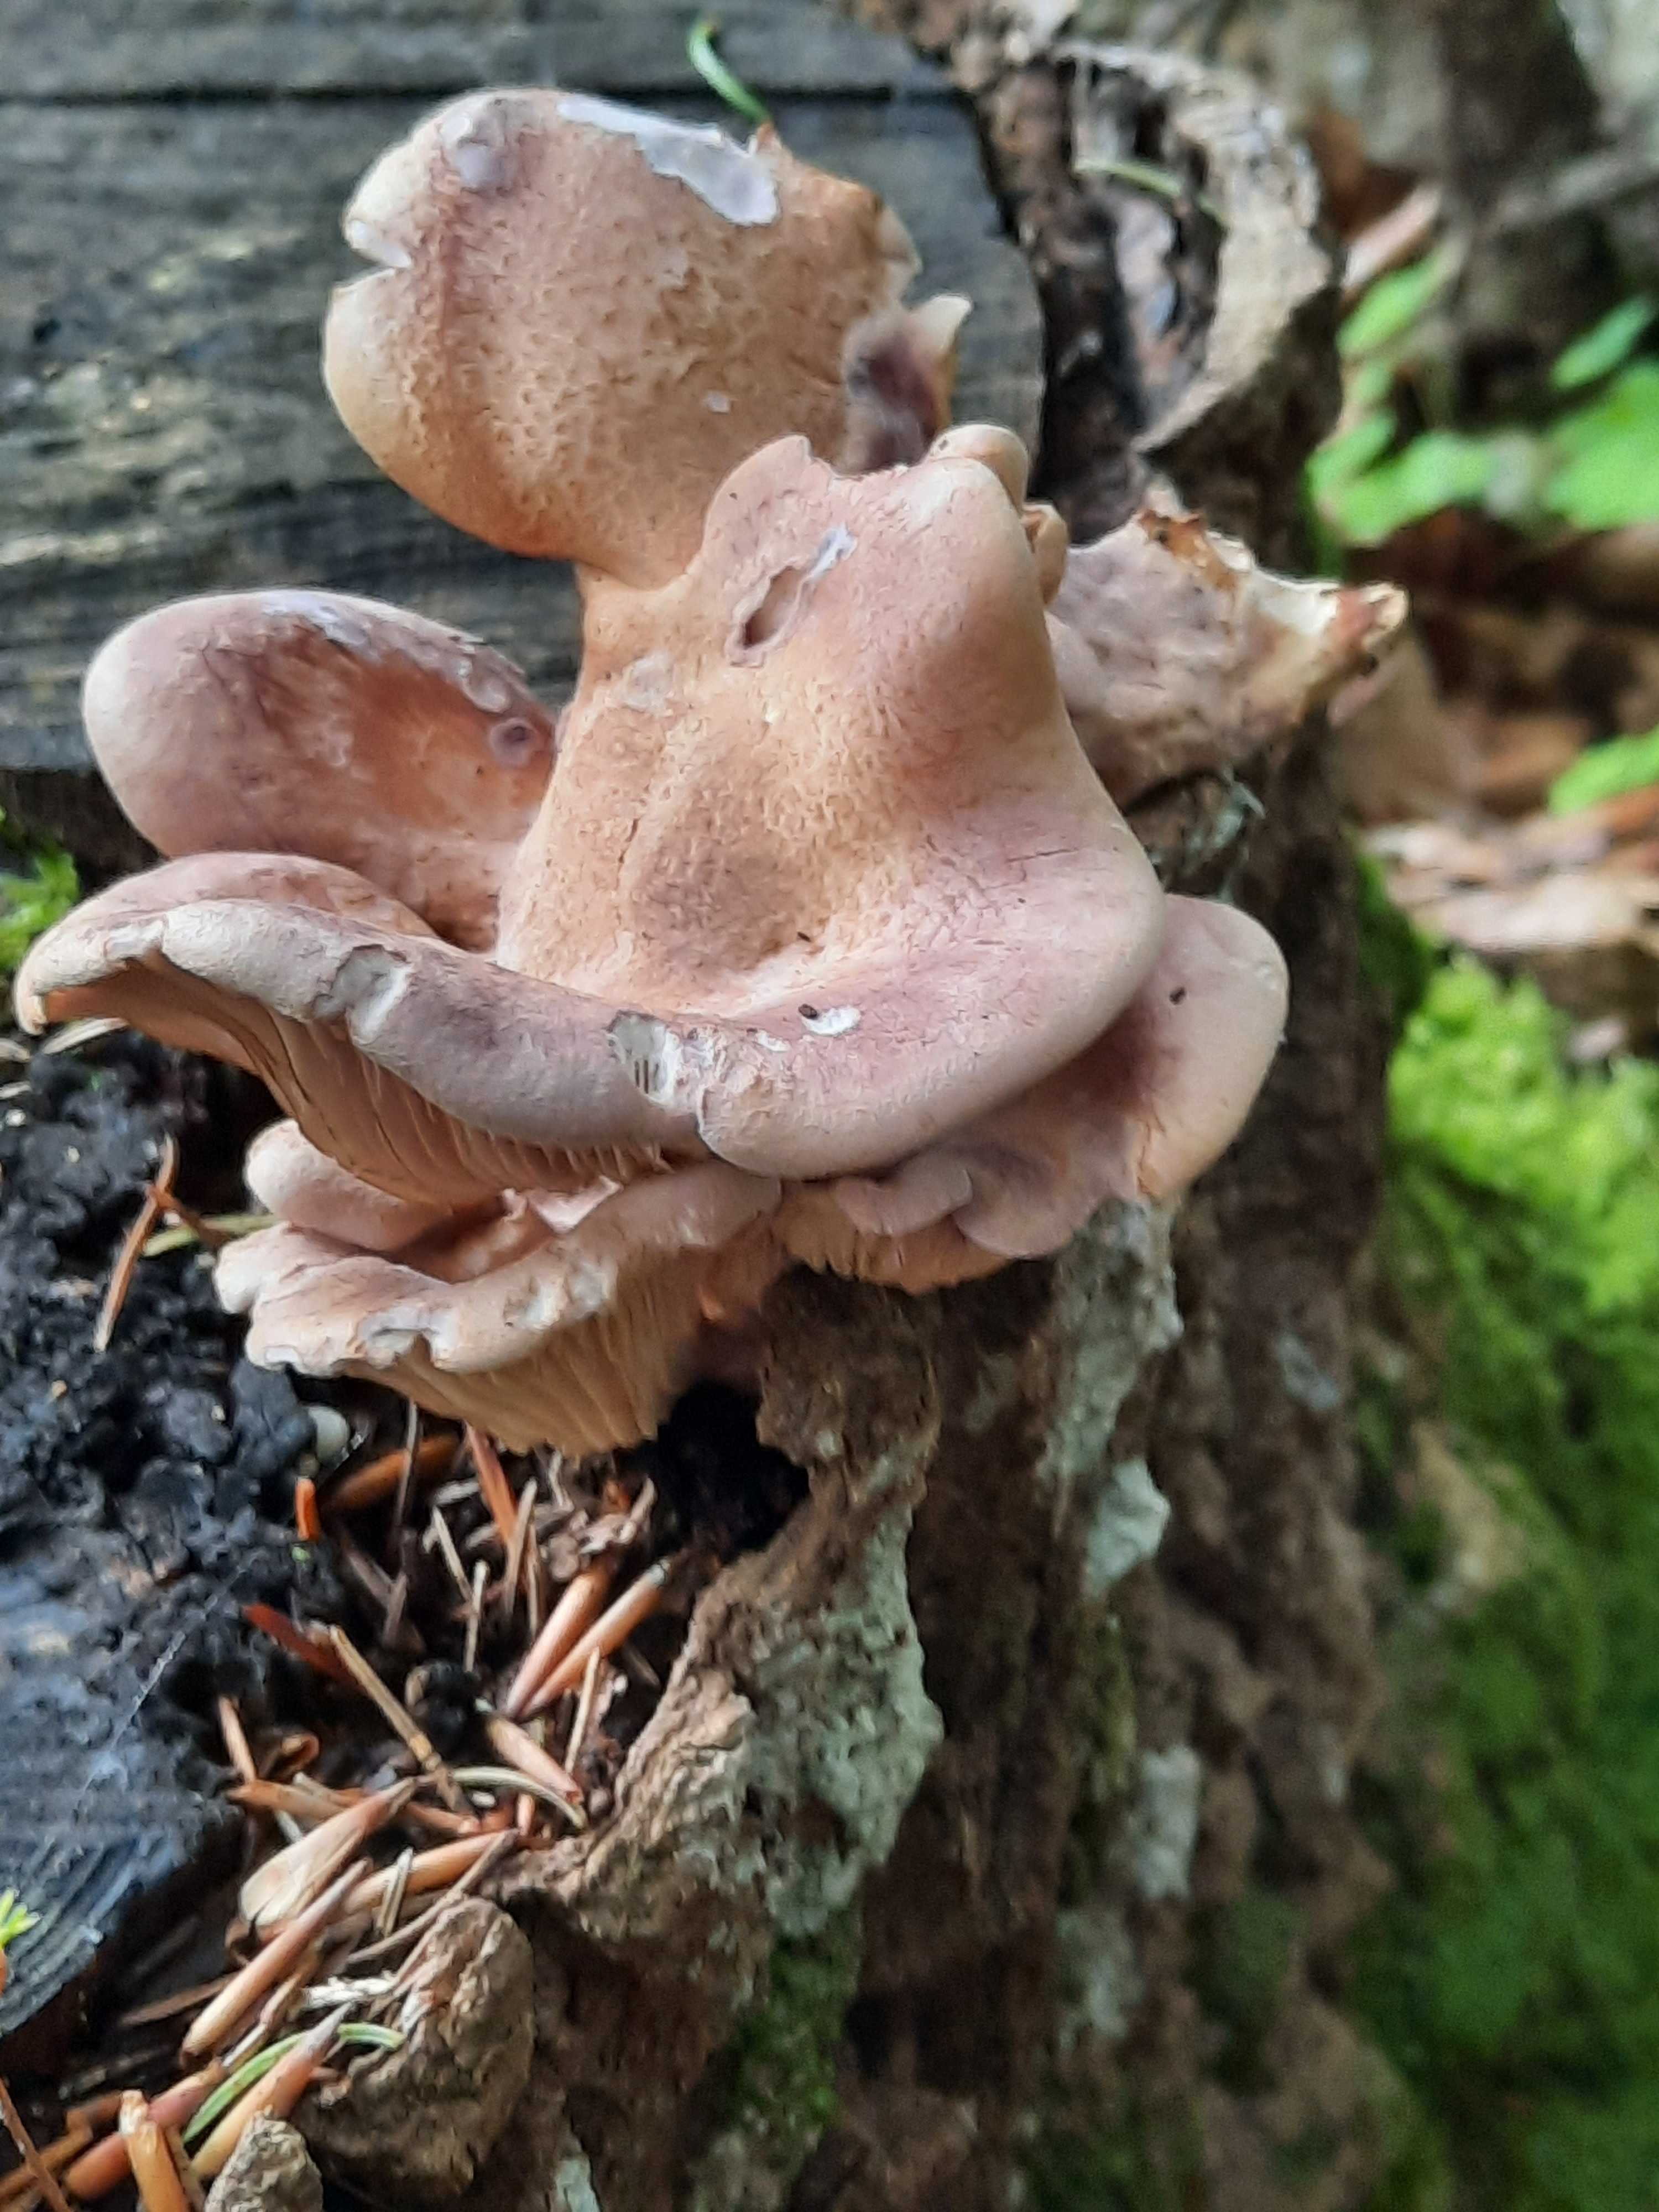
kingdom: Fungi
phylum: Basidiomycota
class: Agaricomycetes
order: Polyporales
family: Panaceae
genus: Panus
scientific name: Panus conchatus
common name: filtstokket læderhat
